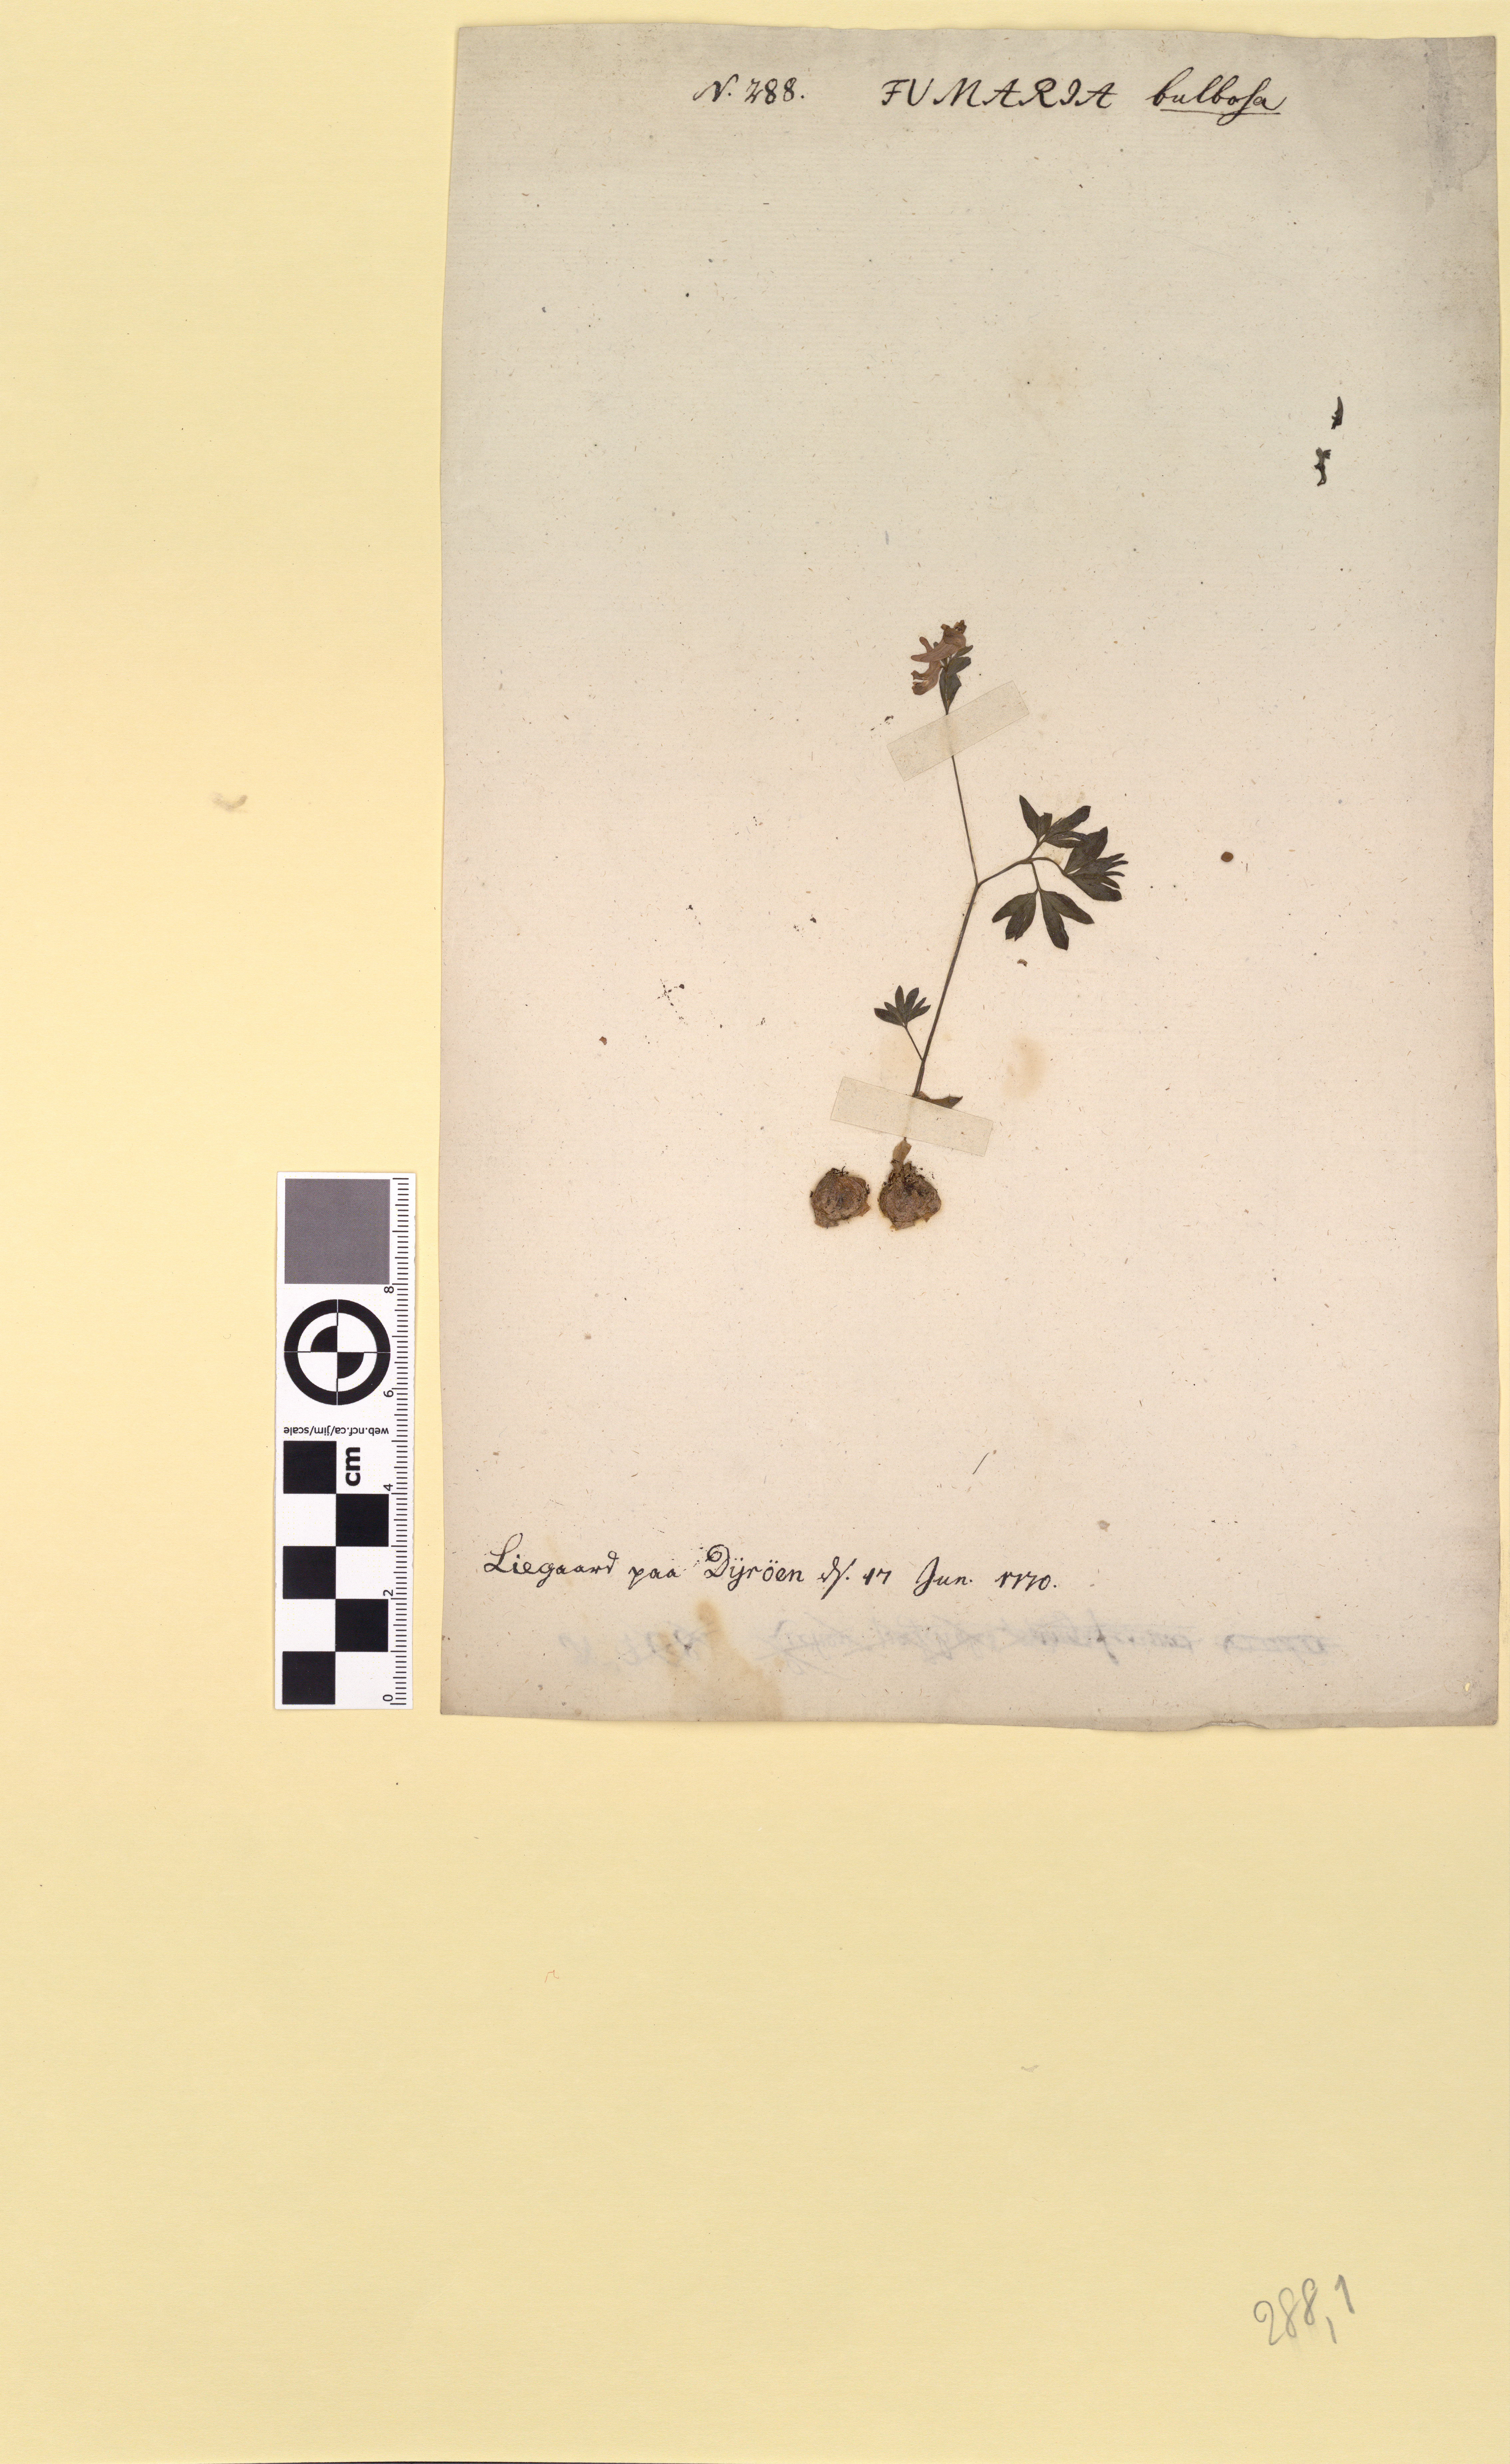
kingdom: Plantae
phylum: Tracheophyta
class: Magnoliopsida
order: Ranunculales
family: Papaveraceae
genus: Corydalis
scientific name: Corydalis intermedia
